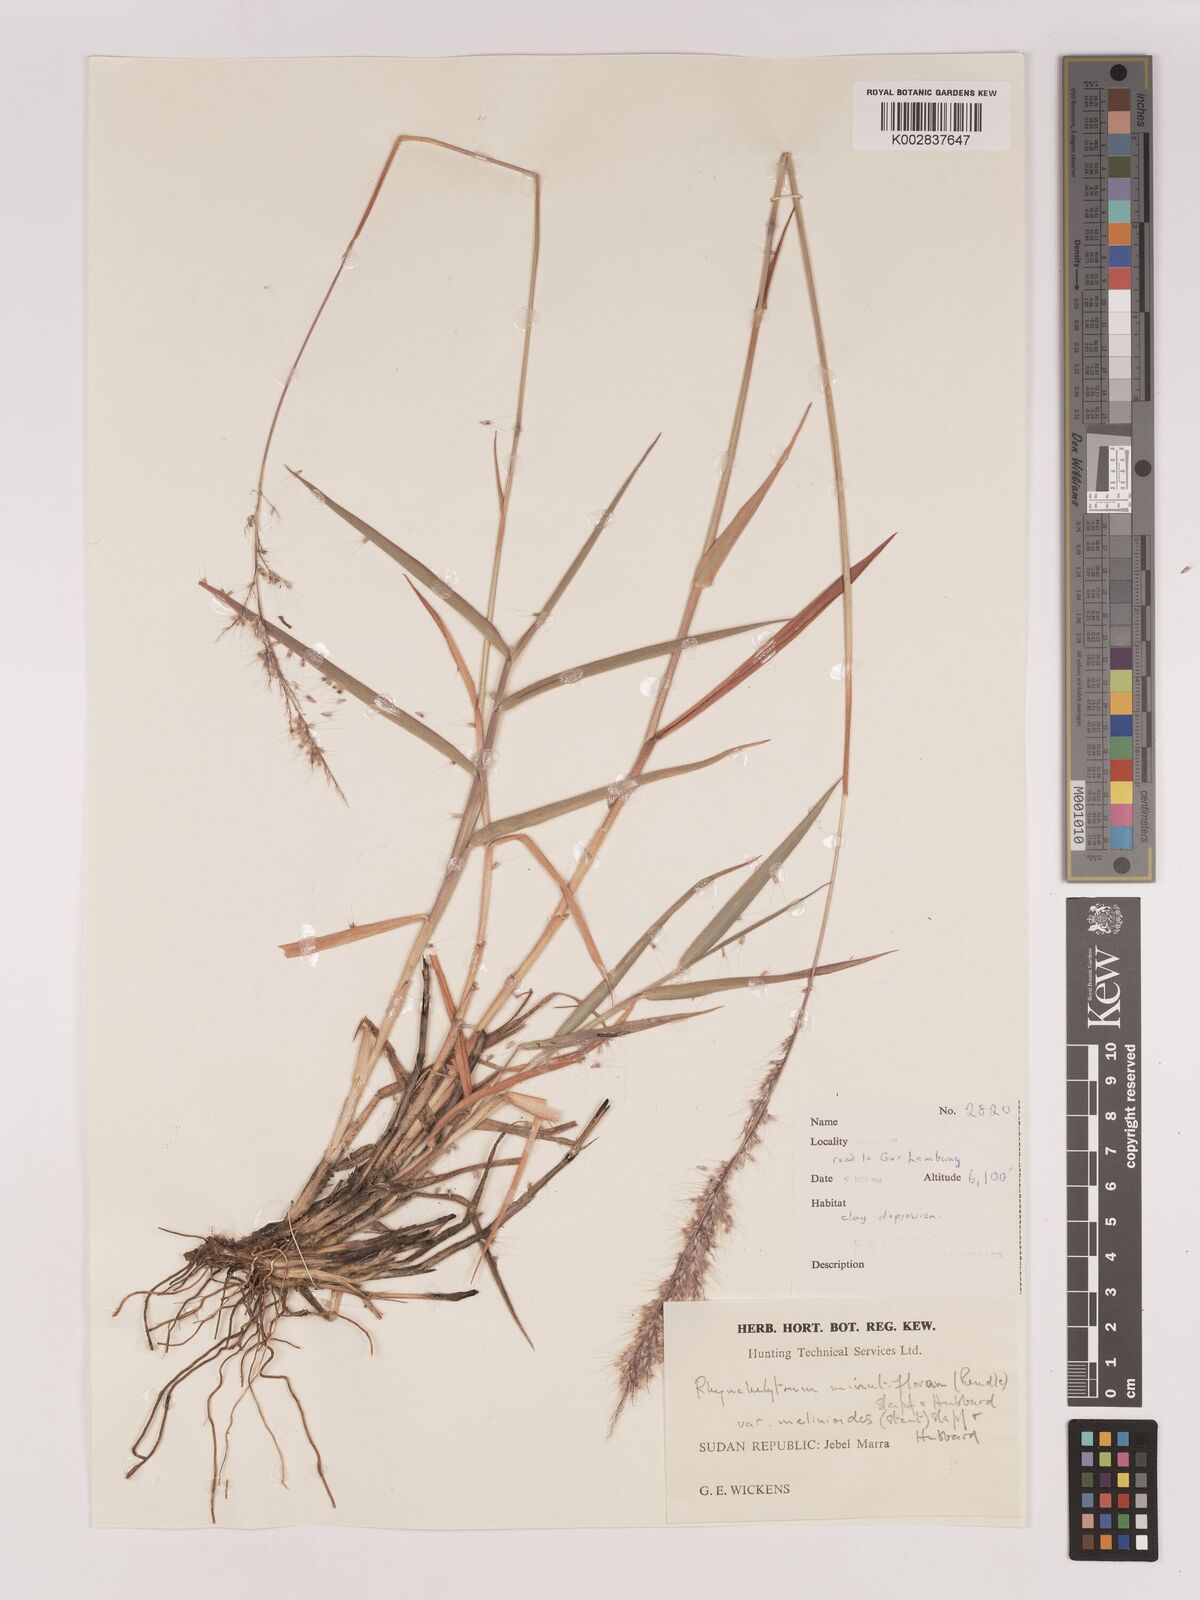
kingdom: Plantae
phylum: Tracheophyta
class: Liliopsida
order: Poales
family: Poaceae
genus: Melinis
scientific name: Melinis longiseta
